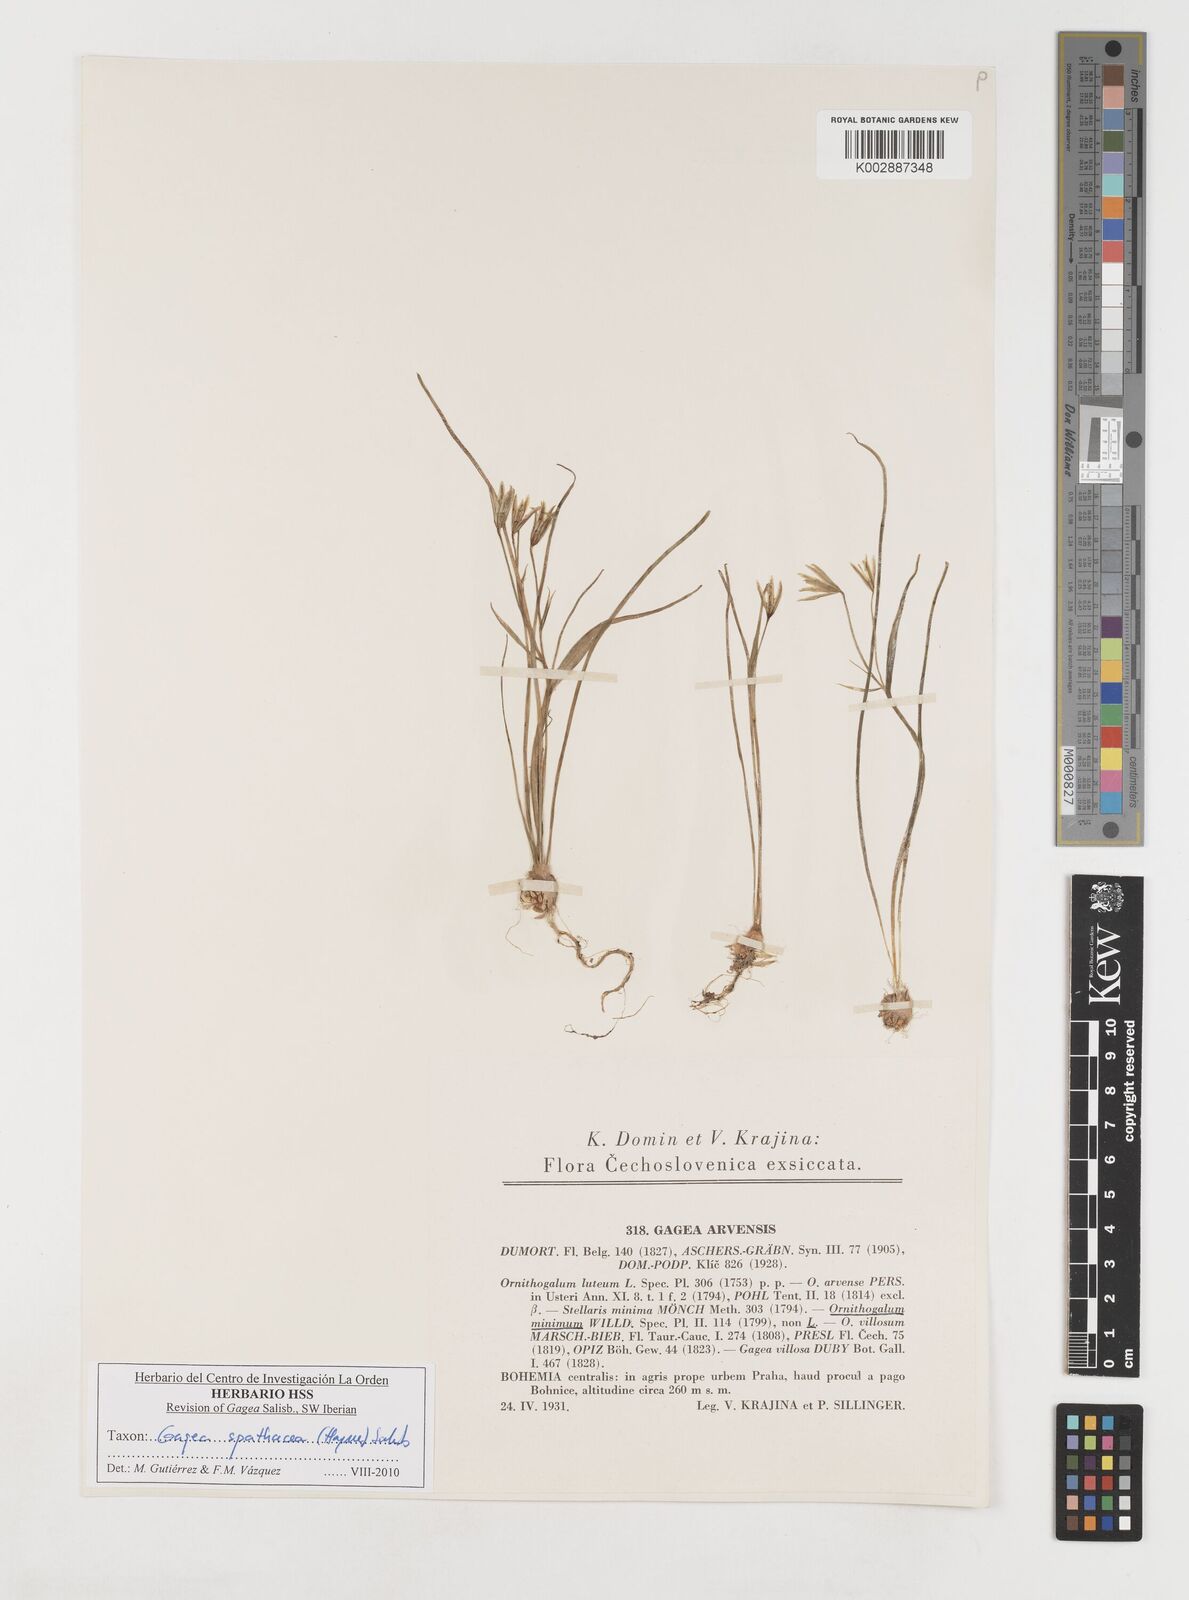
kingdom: Plantae
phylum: Tracheophyta
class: Liliopsida
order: Liliales
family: Liliaceae
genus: Gagea
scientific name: Gagea spathacea
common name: Belgian gagea
